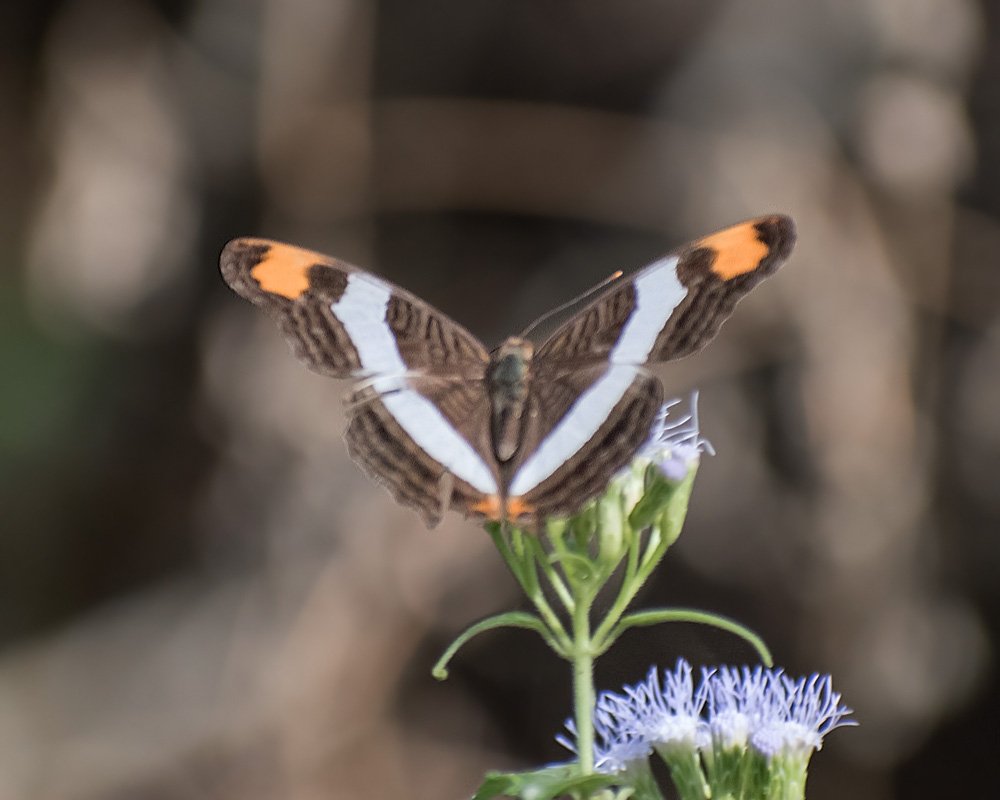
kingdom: Animalia
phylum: Arthropoda
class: Insecta
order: Lepidoptera
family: Nymphalidae
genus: Limenitis
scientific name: Limenitis fessonia
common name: Band-celled Sister
